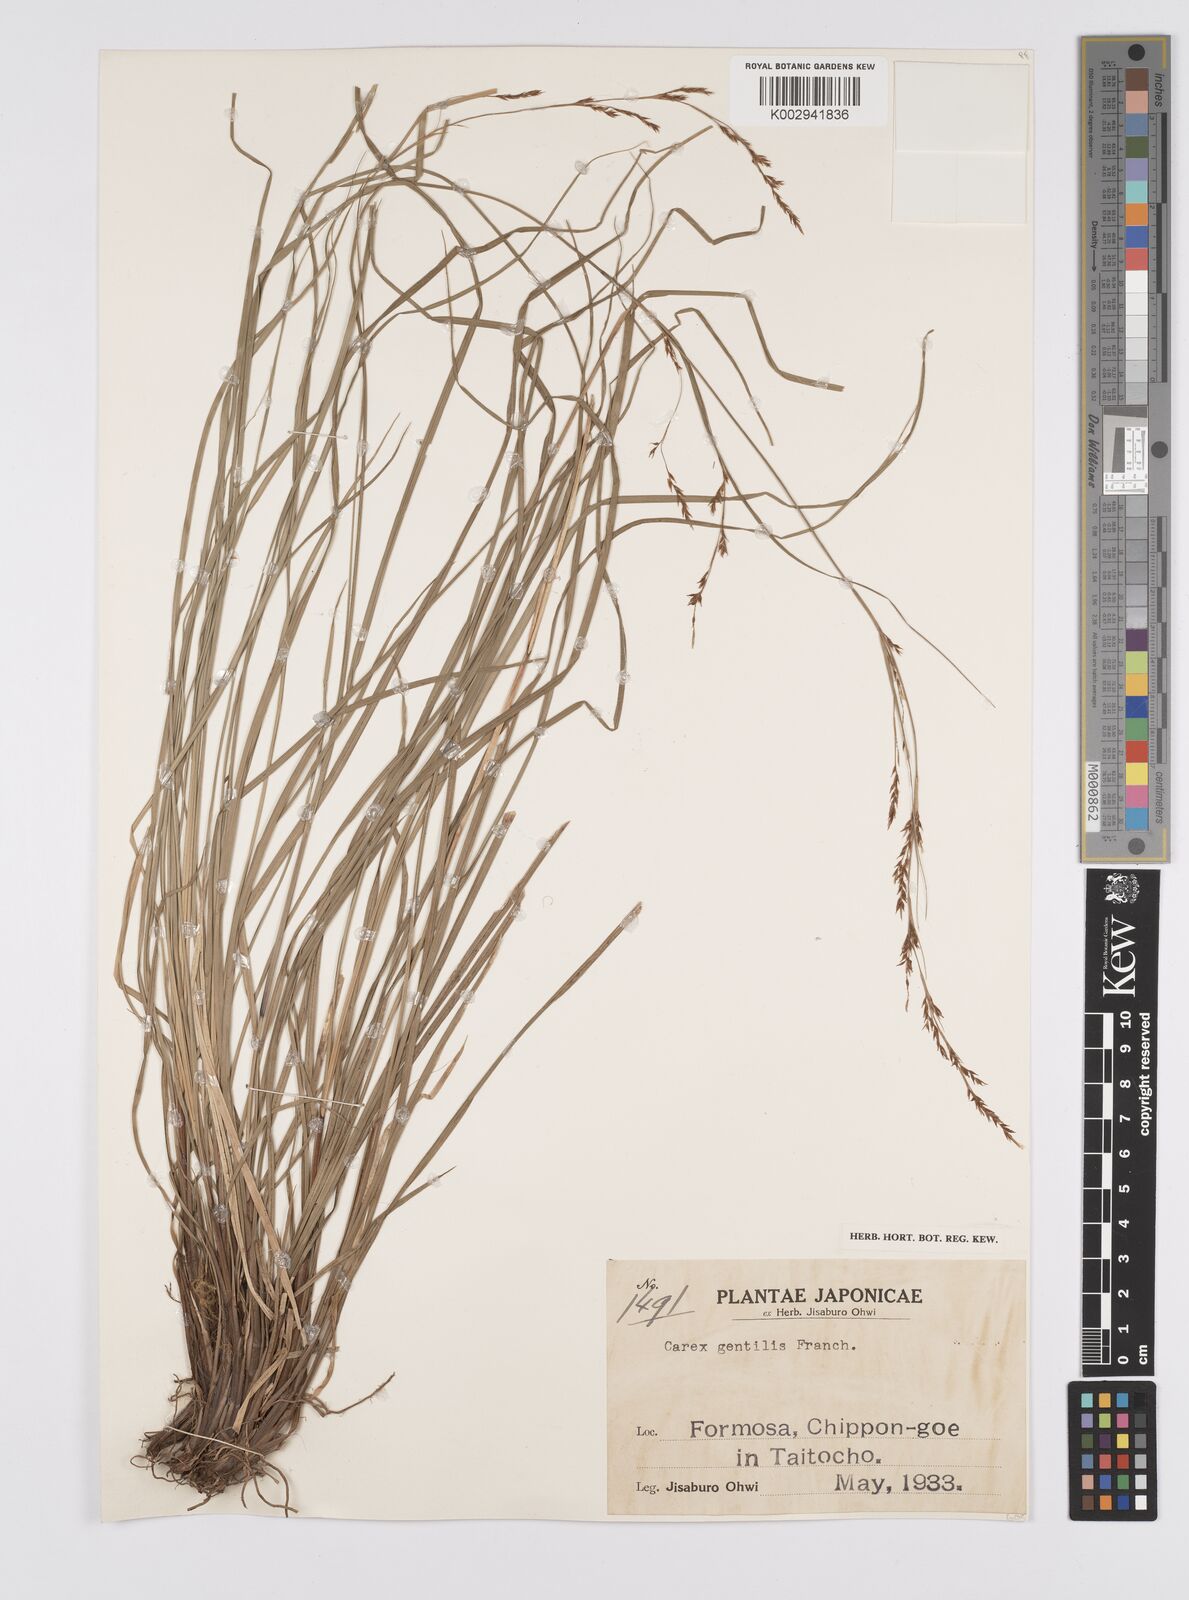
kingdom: Plantae
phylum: Tracheophyta
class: Liliopsida
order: Poales
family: Cyperaceae
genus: Carex
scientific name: Carex gentilis
